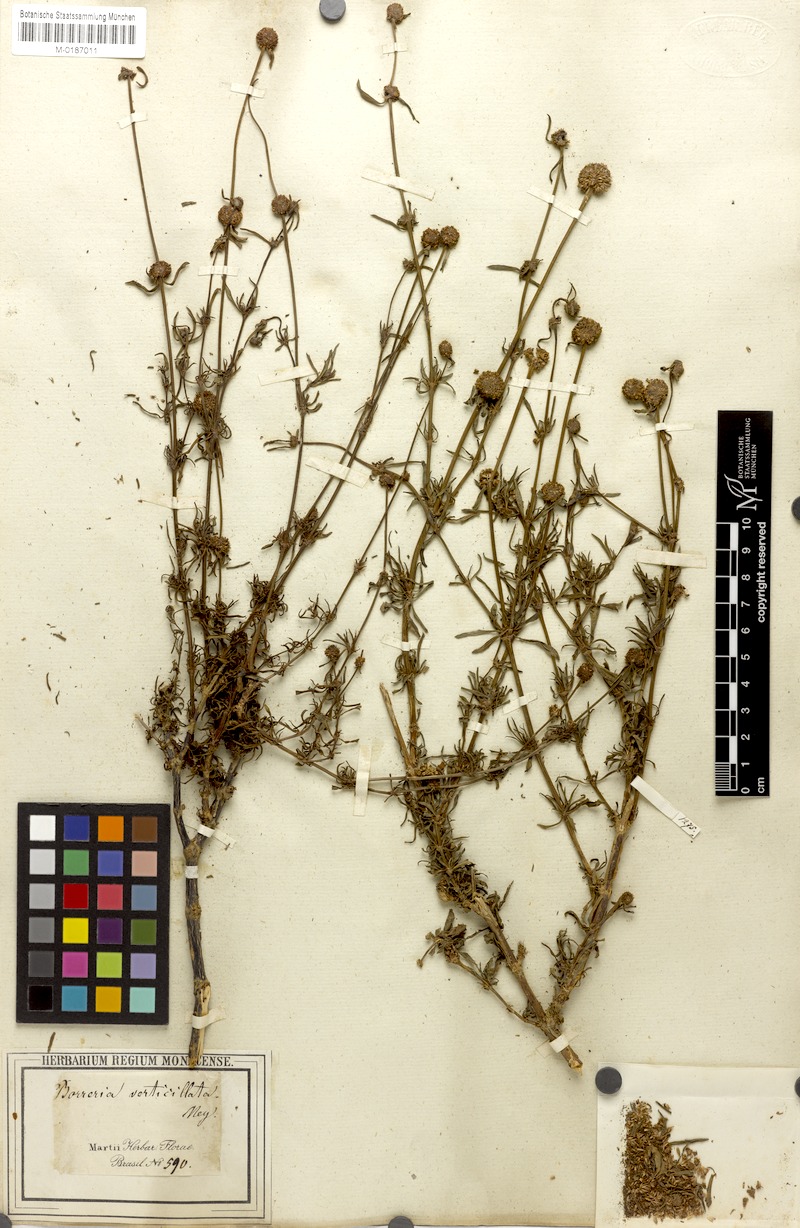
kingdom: Plantae
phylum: Tracheophyta
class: Magnoliopsida
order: Gentianales
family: Rubiaceae
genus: Spermacoce
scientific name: Spermacoce verticillata
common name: Shrubby false buttonweed
